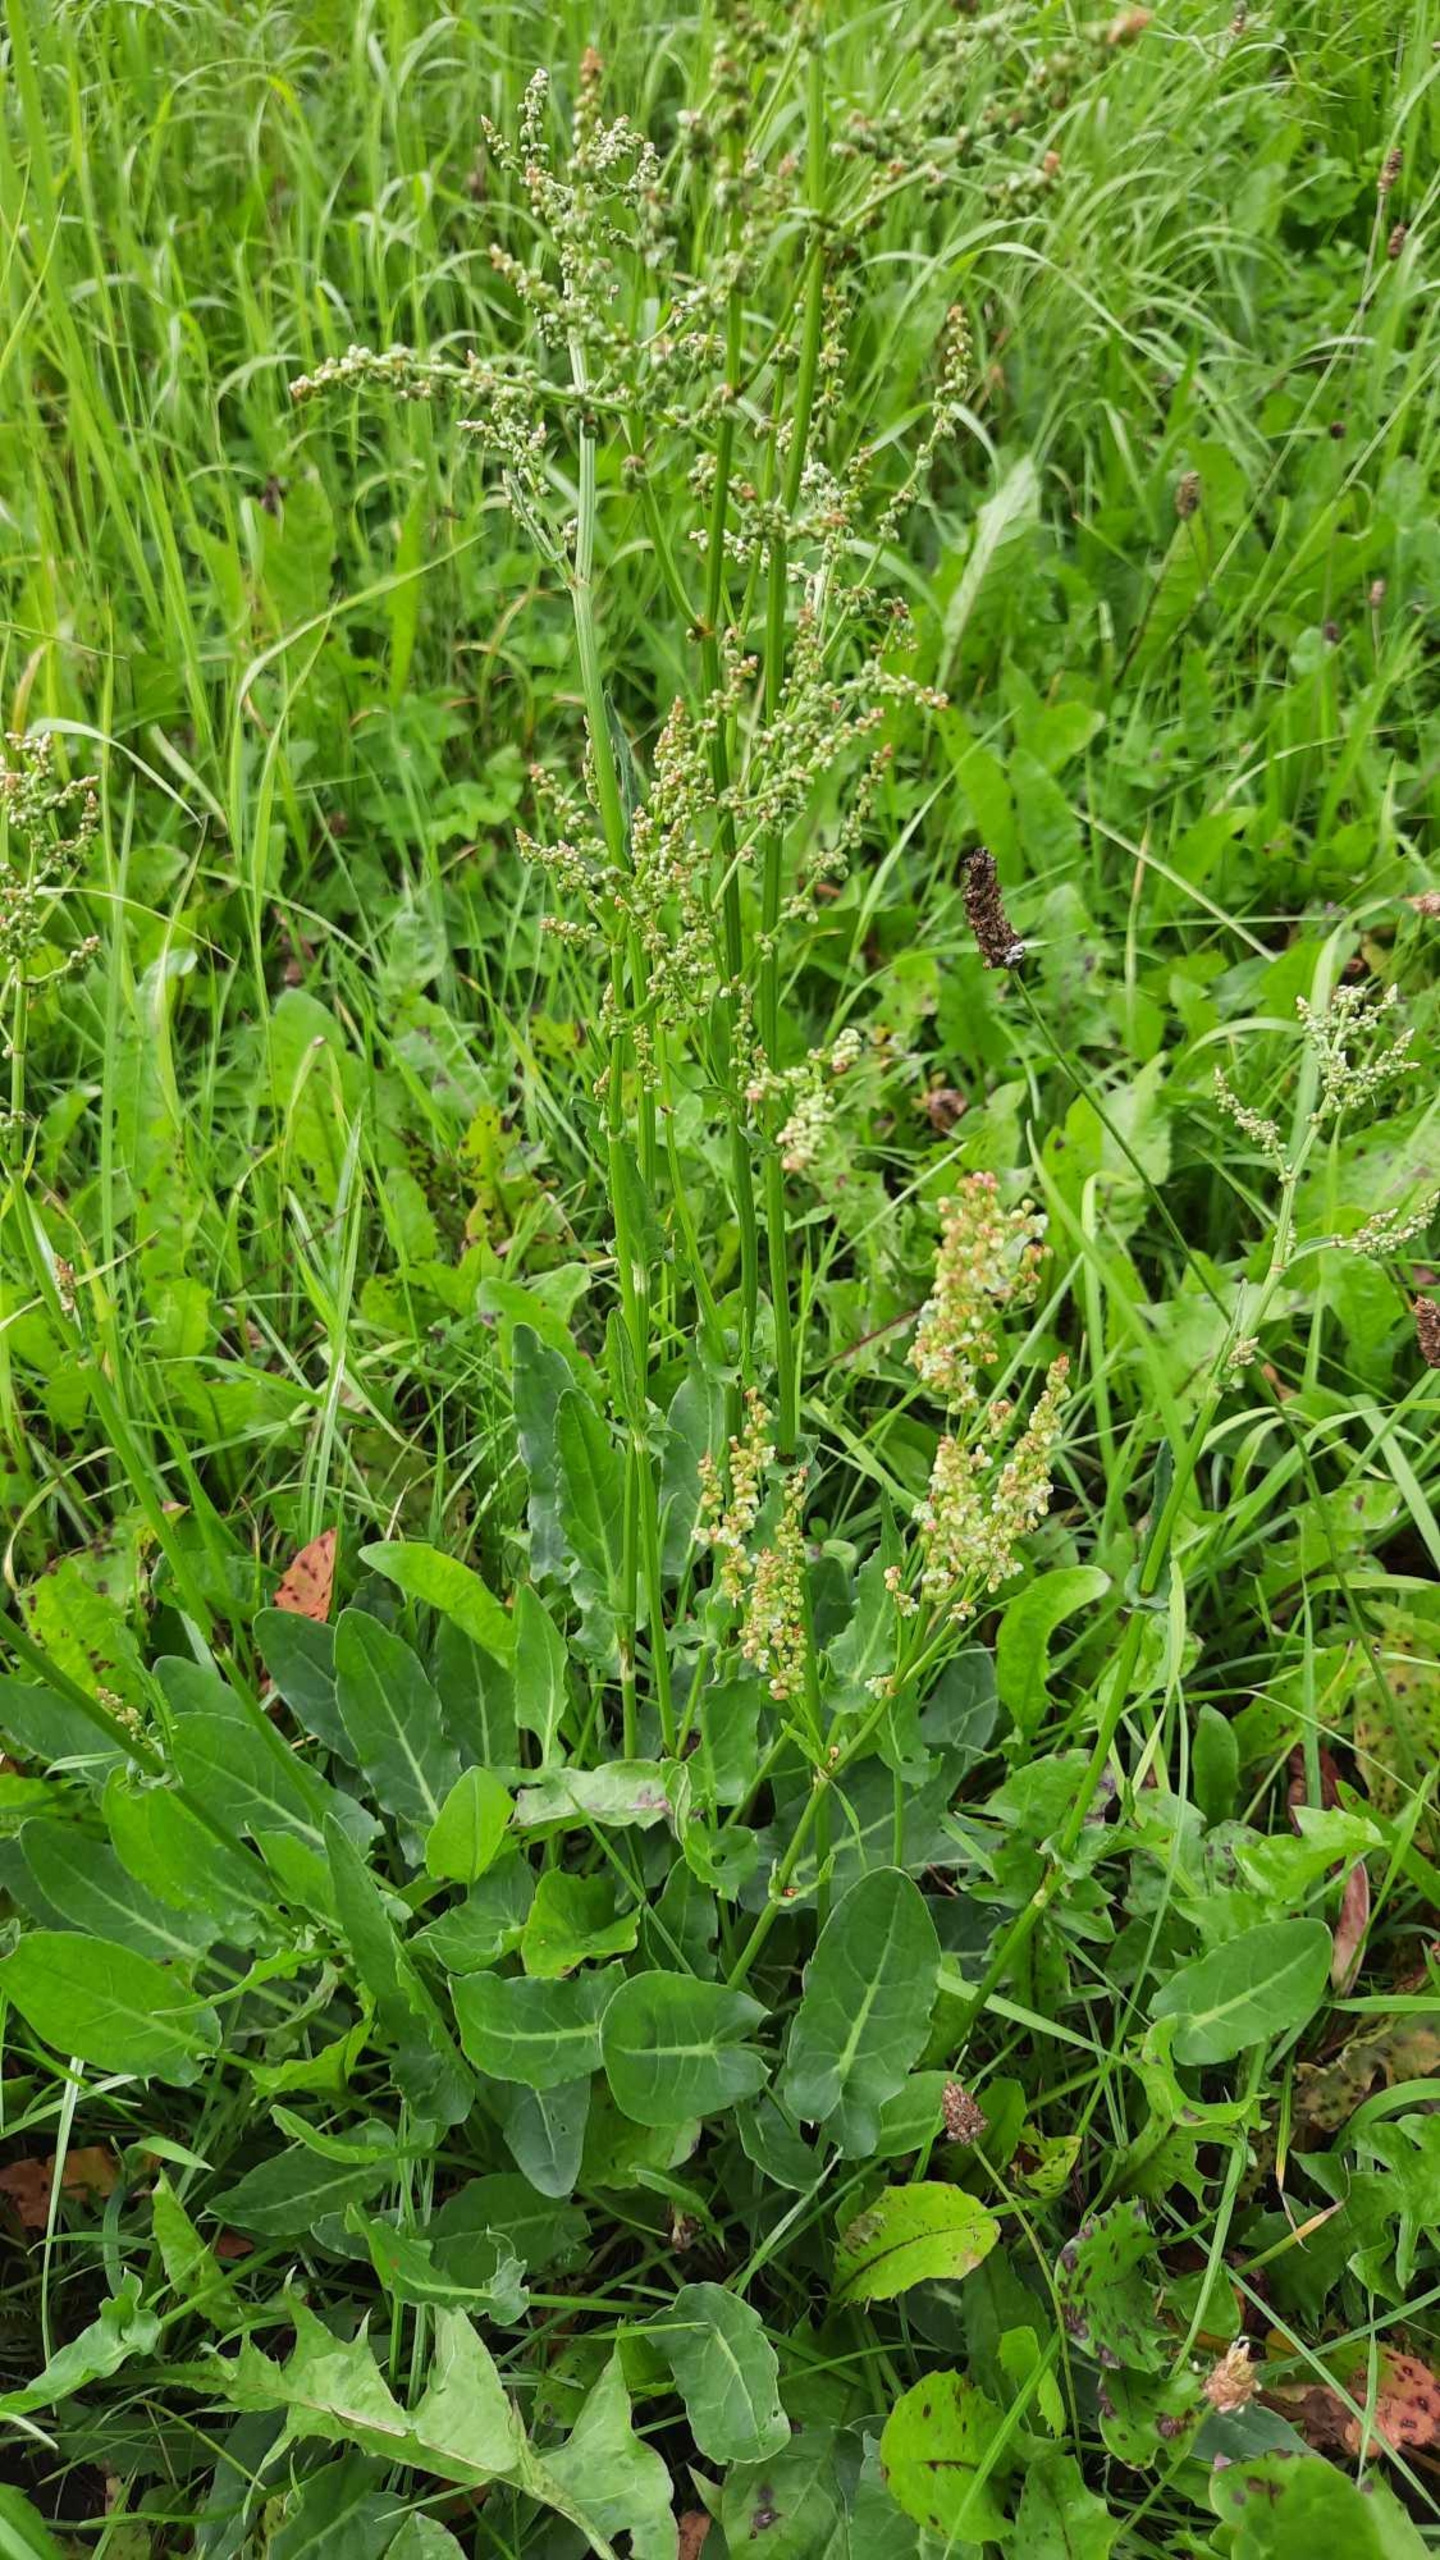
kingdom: Plantae
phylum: Tracheophyta
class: Magnoliopsida
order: Caryophyllales
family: Polygonaceae
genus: Rumex
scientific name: Rumex acetosa
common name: Almindelig syre
